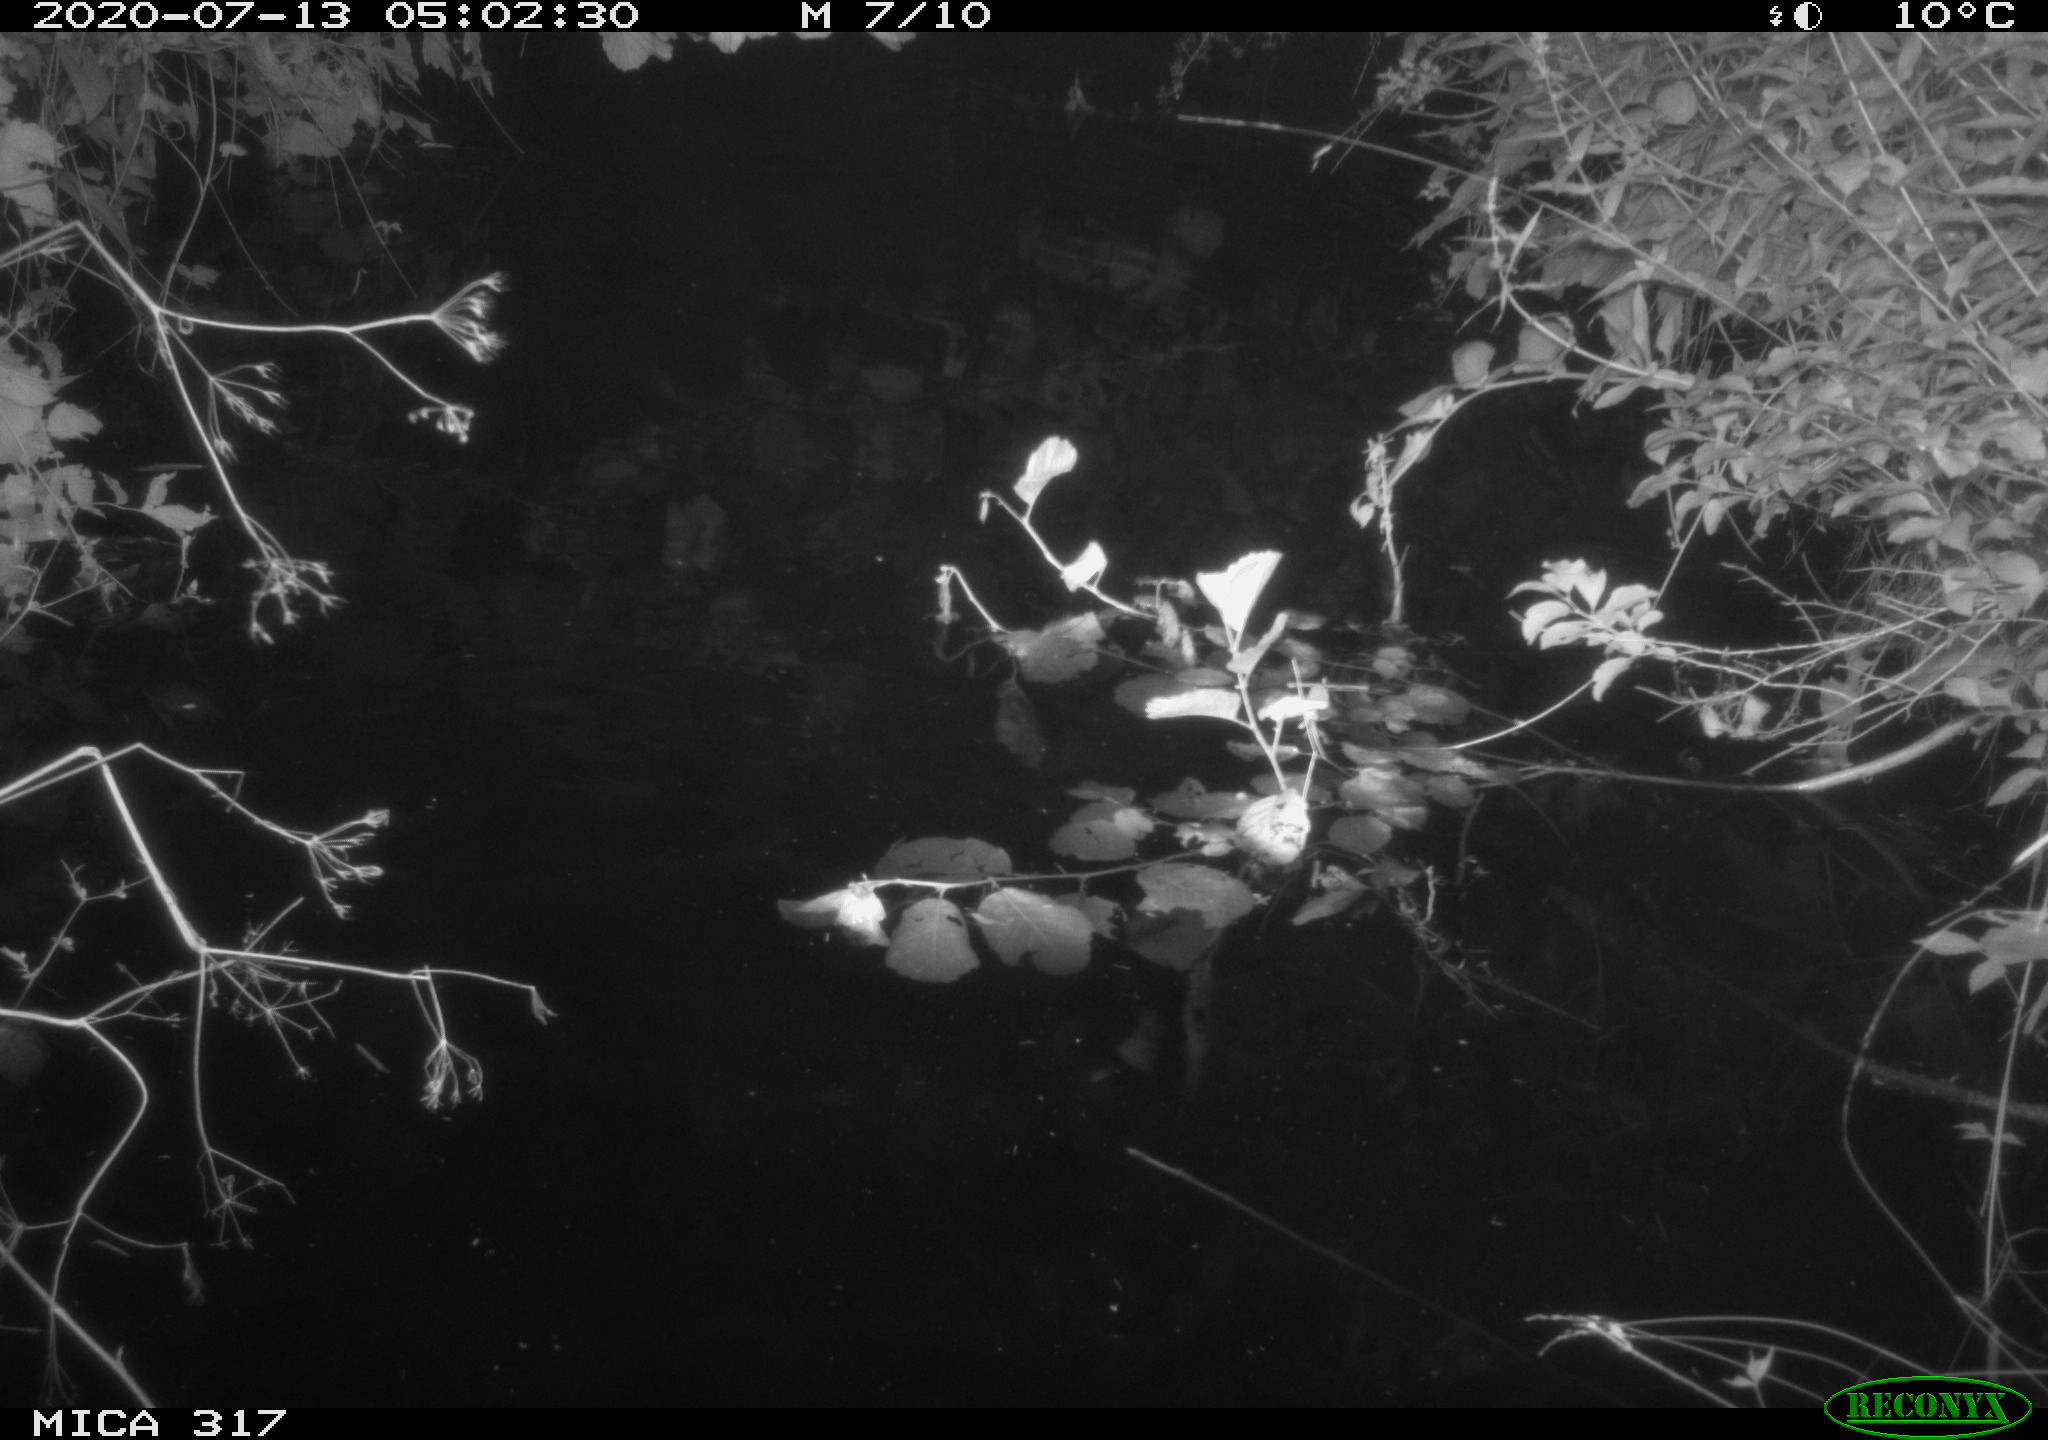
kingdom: Animalia
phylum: Chordata
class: Aves
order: Anseriformes
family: Anatidae
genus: Anas
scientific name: Anas platyrhynchos
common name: Mallard
